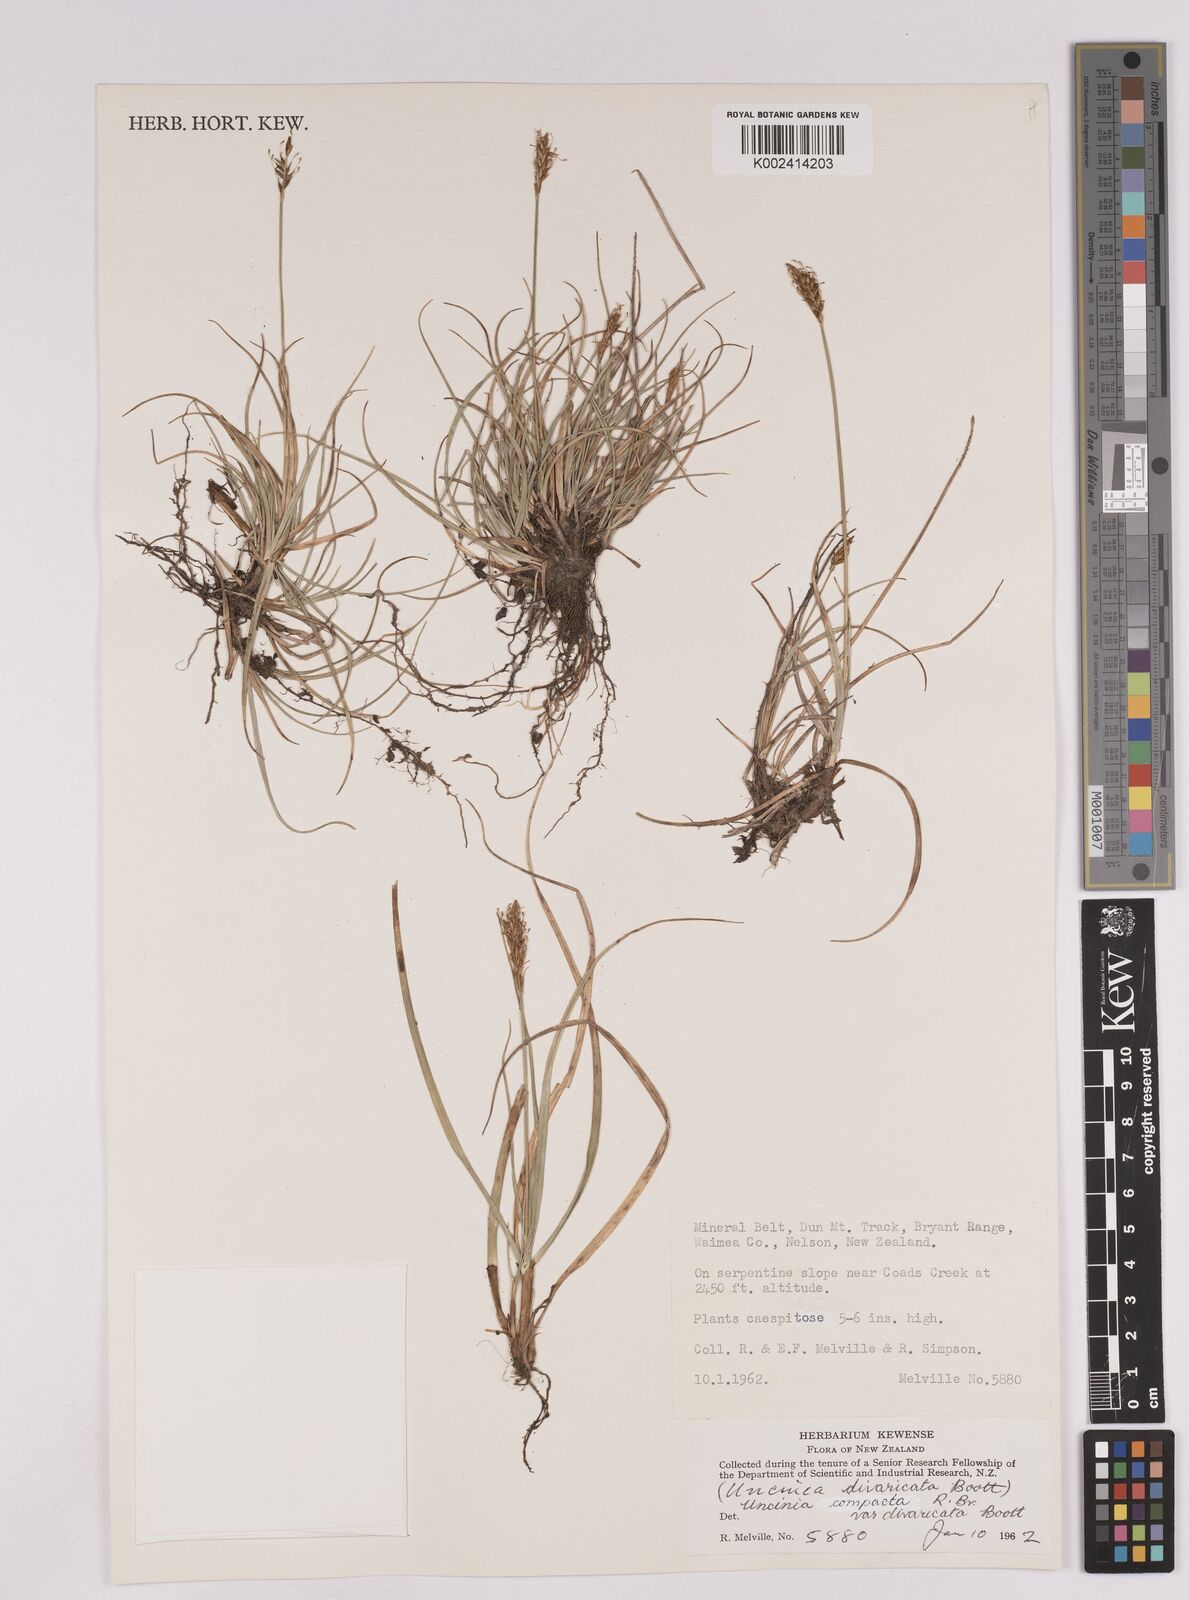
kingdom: Plantae
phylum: Tracheophyta
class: Liliopsida
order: Poales
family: Cyperaceae
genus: Carex
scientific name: Carex austrocompacta
